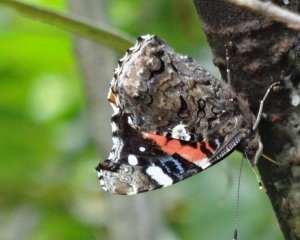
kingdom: Animalia
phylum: Arthropoda
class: Insecta
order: Lepidoptera
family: Nymphalidae
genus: Vanessa
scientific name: Vanessa atalanta
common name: Red Admiral
